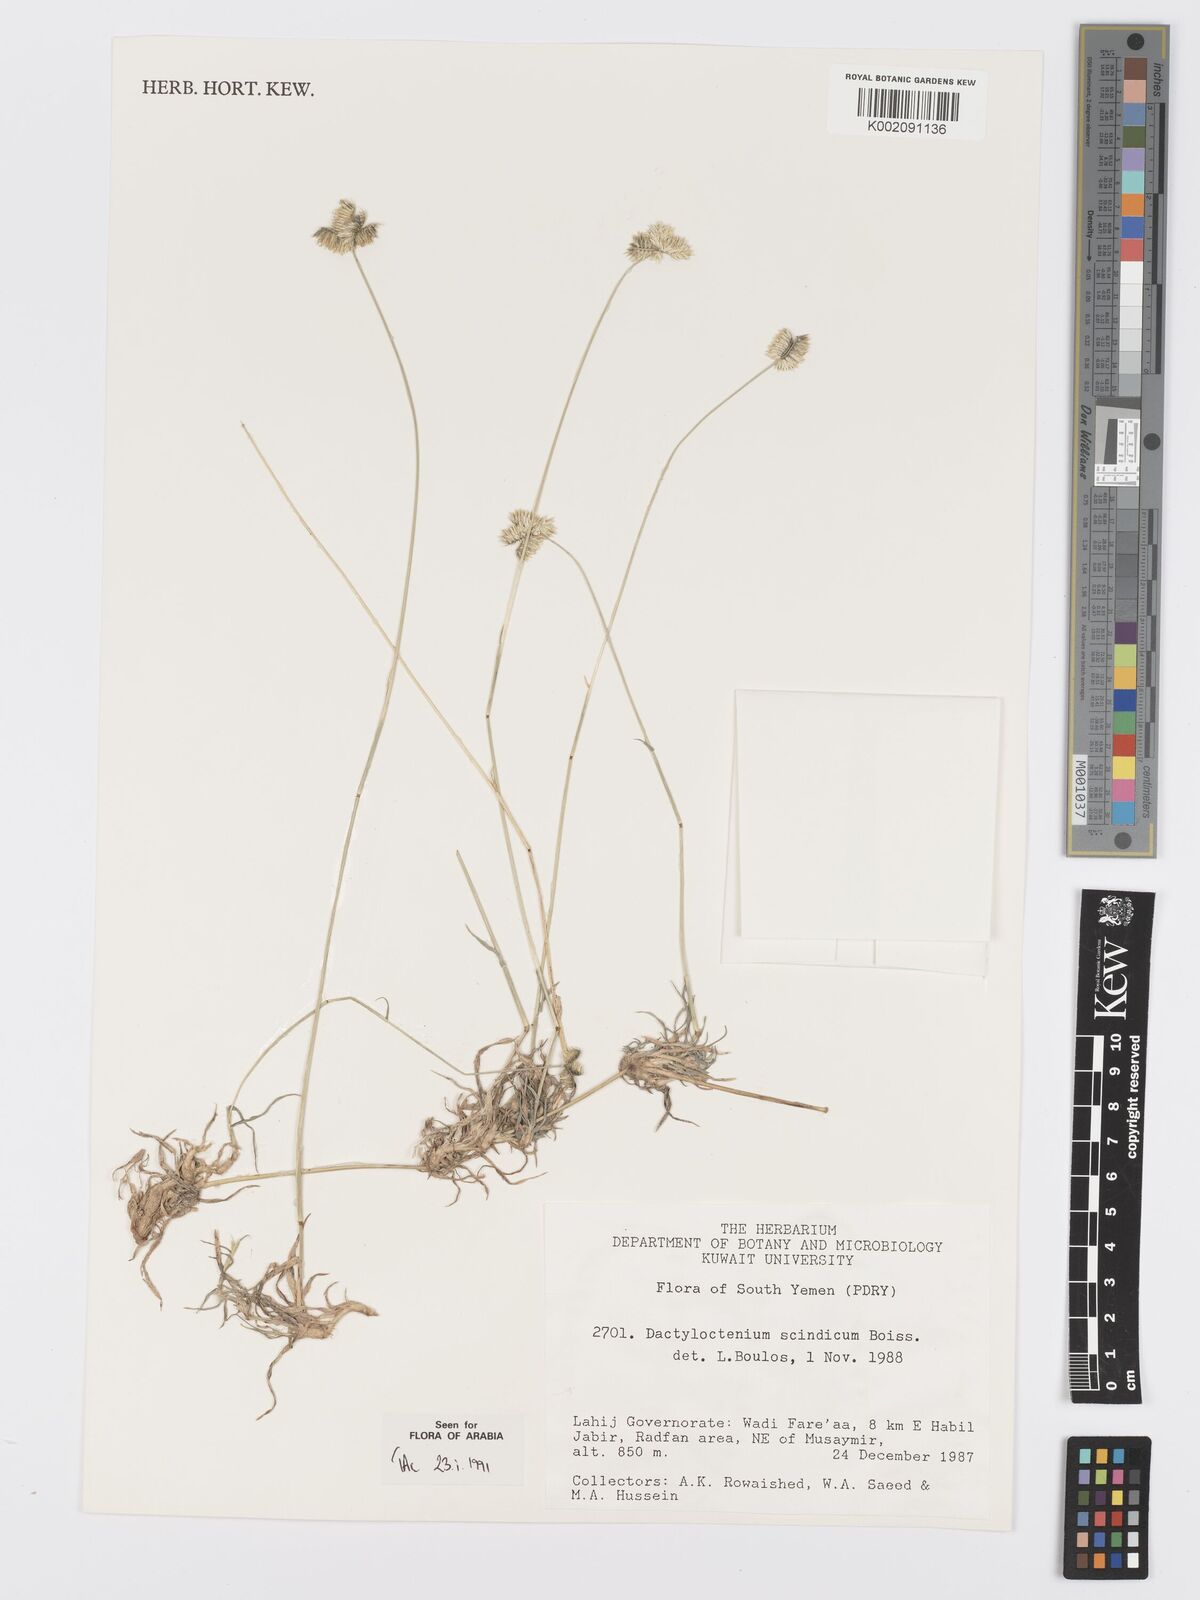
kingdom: Plantae
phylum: Tracheophyta
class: Liliopsida
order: Poales
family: Poaceae
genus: Dactyloctenium
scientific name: Dactyloctenium scindicum
